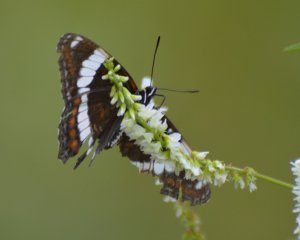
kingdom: Animalia
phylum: Arthropoda
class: Insecta
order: Lepidoptera
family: Nymphalidae
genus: Limenitis
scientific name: Limenitis arthemis
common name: Red-spotted Admiral
